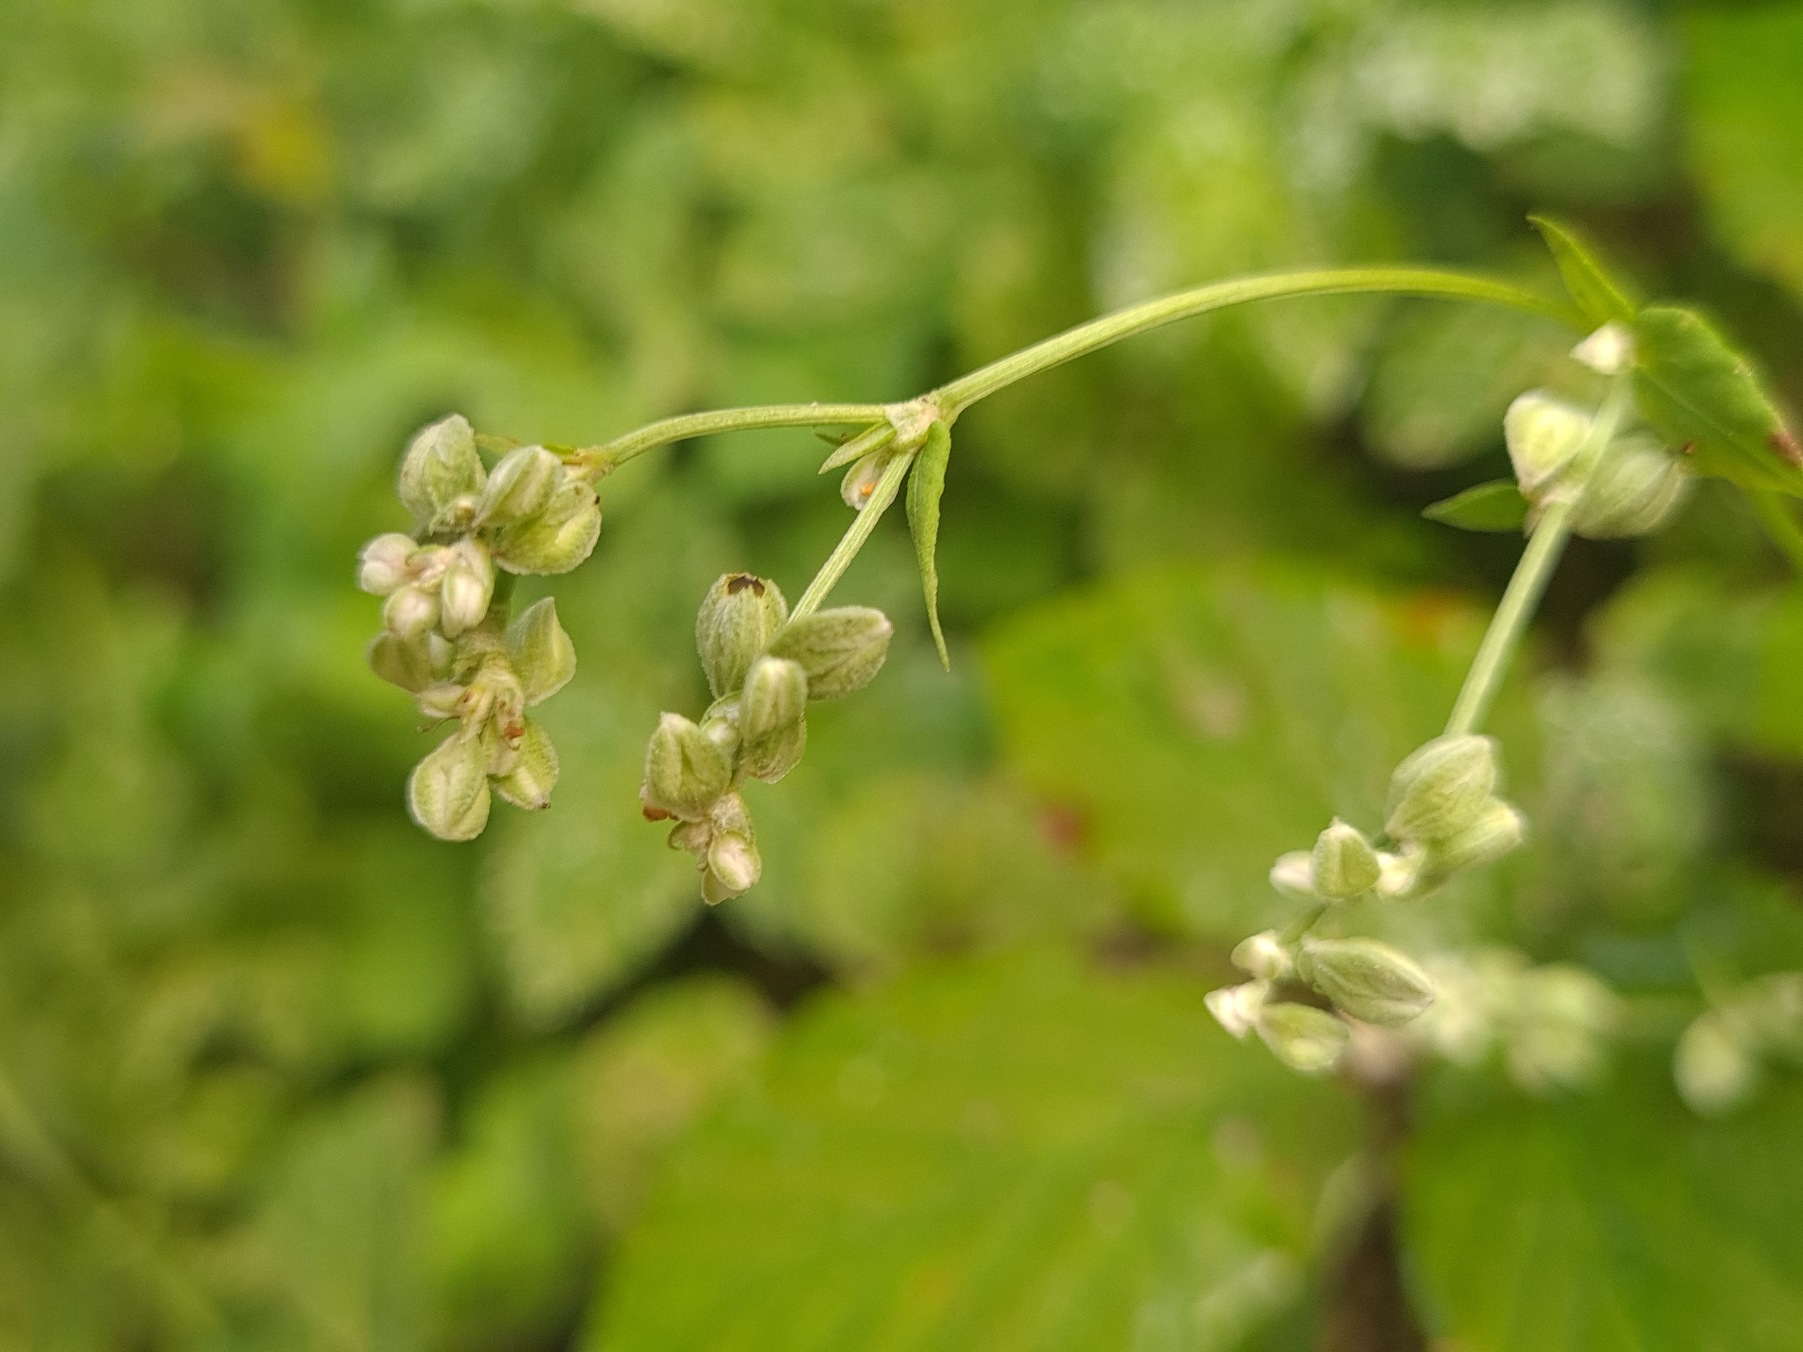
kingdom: Plantae
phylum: Tracheophyta
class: Magnoliopsida
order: Caryophyllales
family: Polygonaceae
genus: Fallopia
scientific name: Fallopia convolvulus
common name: Snerle-pileurt
